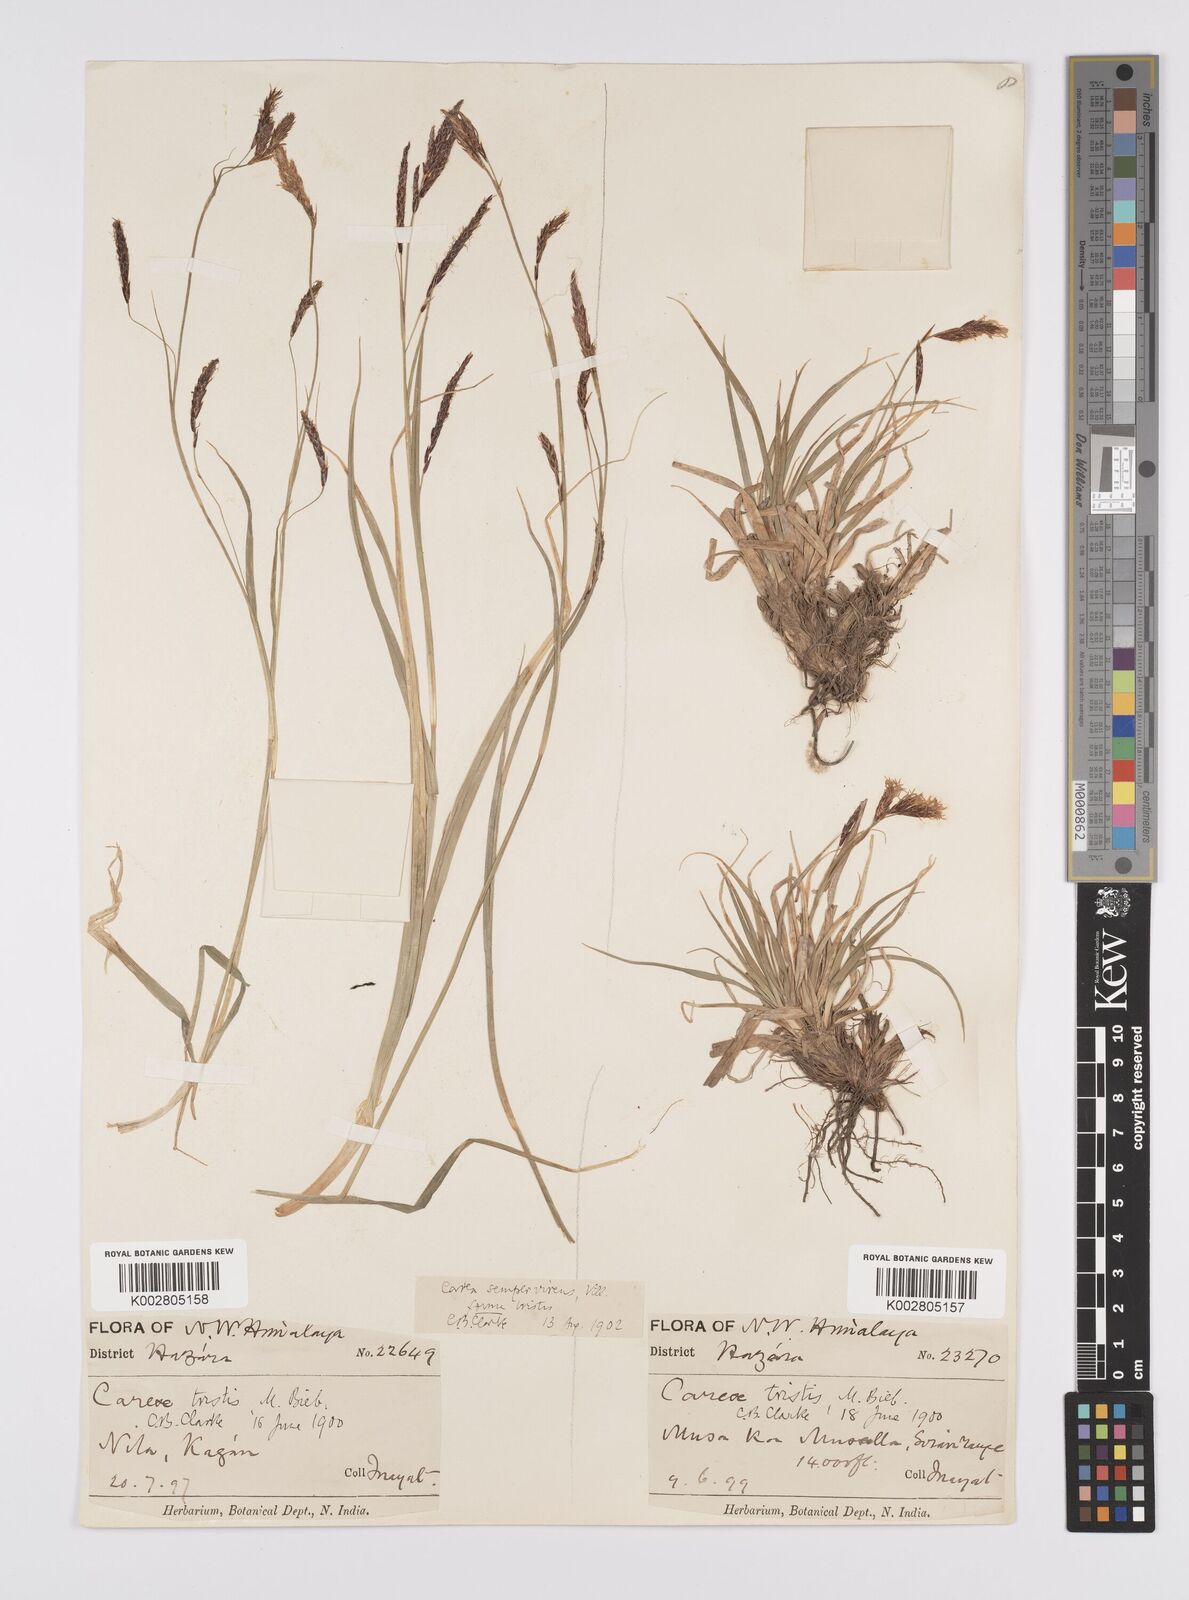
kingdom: Plantae
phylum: Tracheophyta
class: Liliopsida
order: Poales
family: Cyperaceae
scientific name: Cyperaceae
